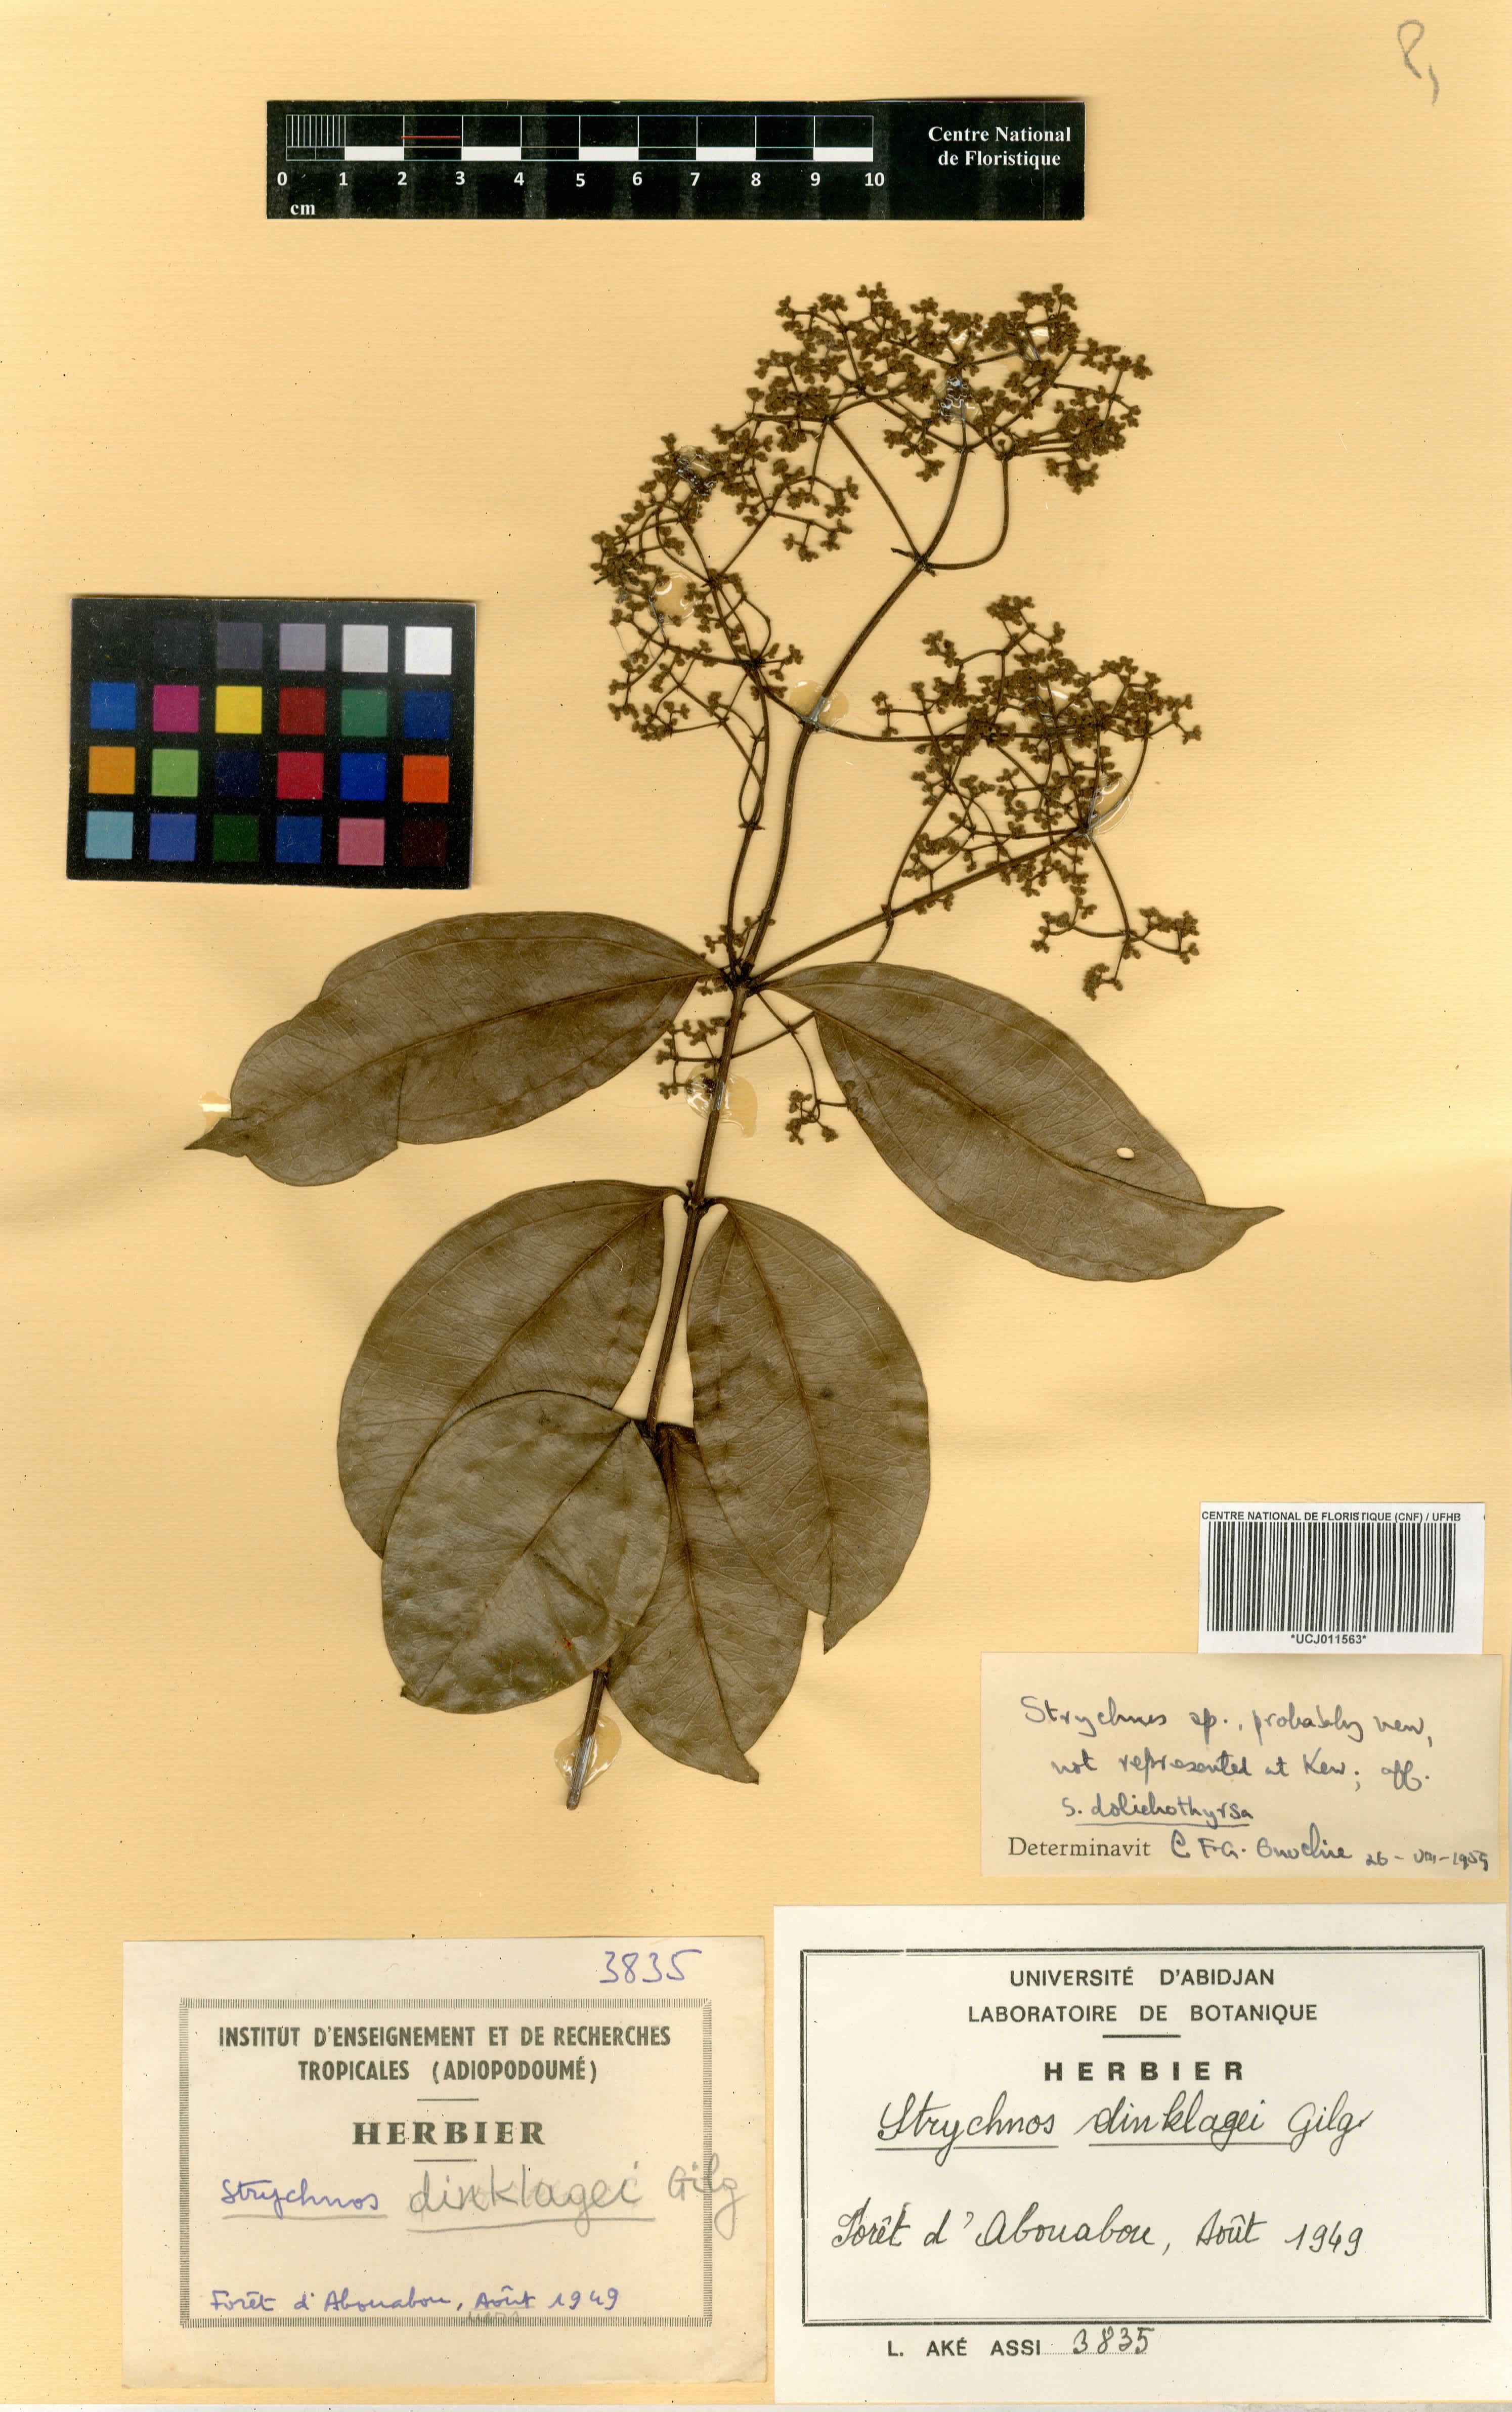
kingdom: Plantae
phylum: Tracheophyta
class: Magnoliopsida
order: Gentianales
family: Loganiaceae
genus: Strychnos
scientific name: Strychnos dinklagei
